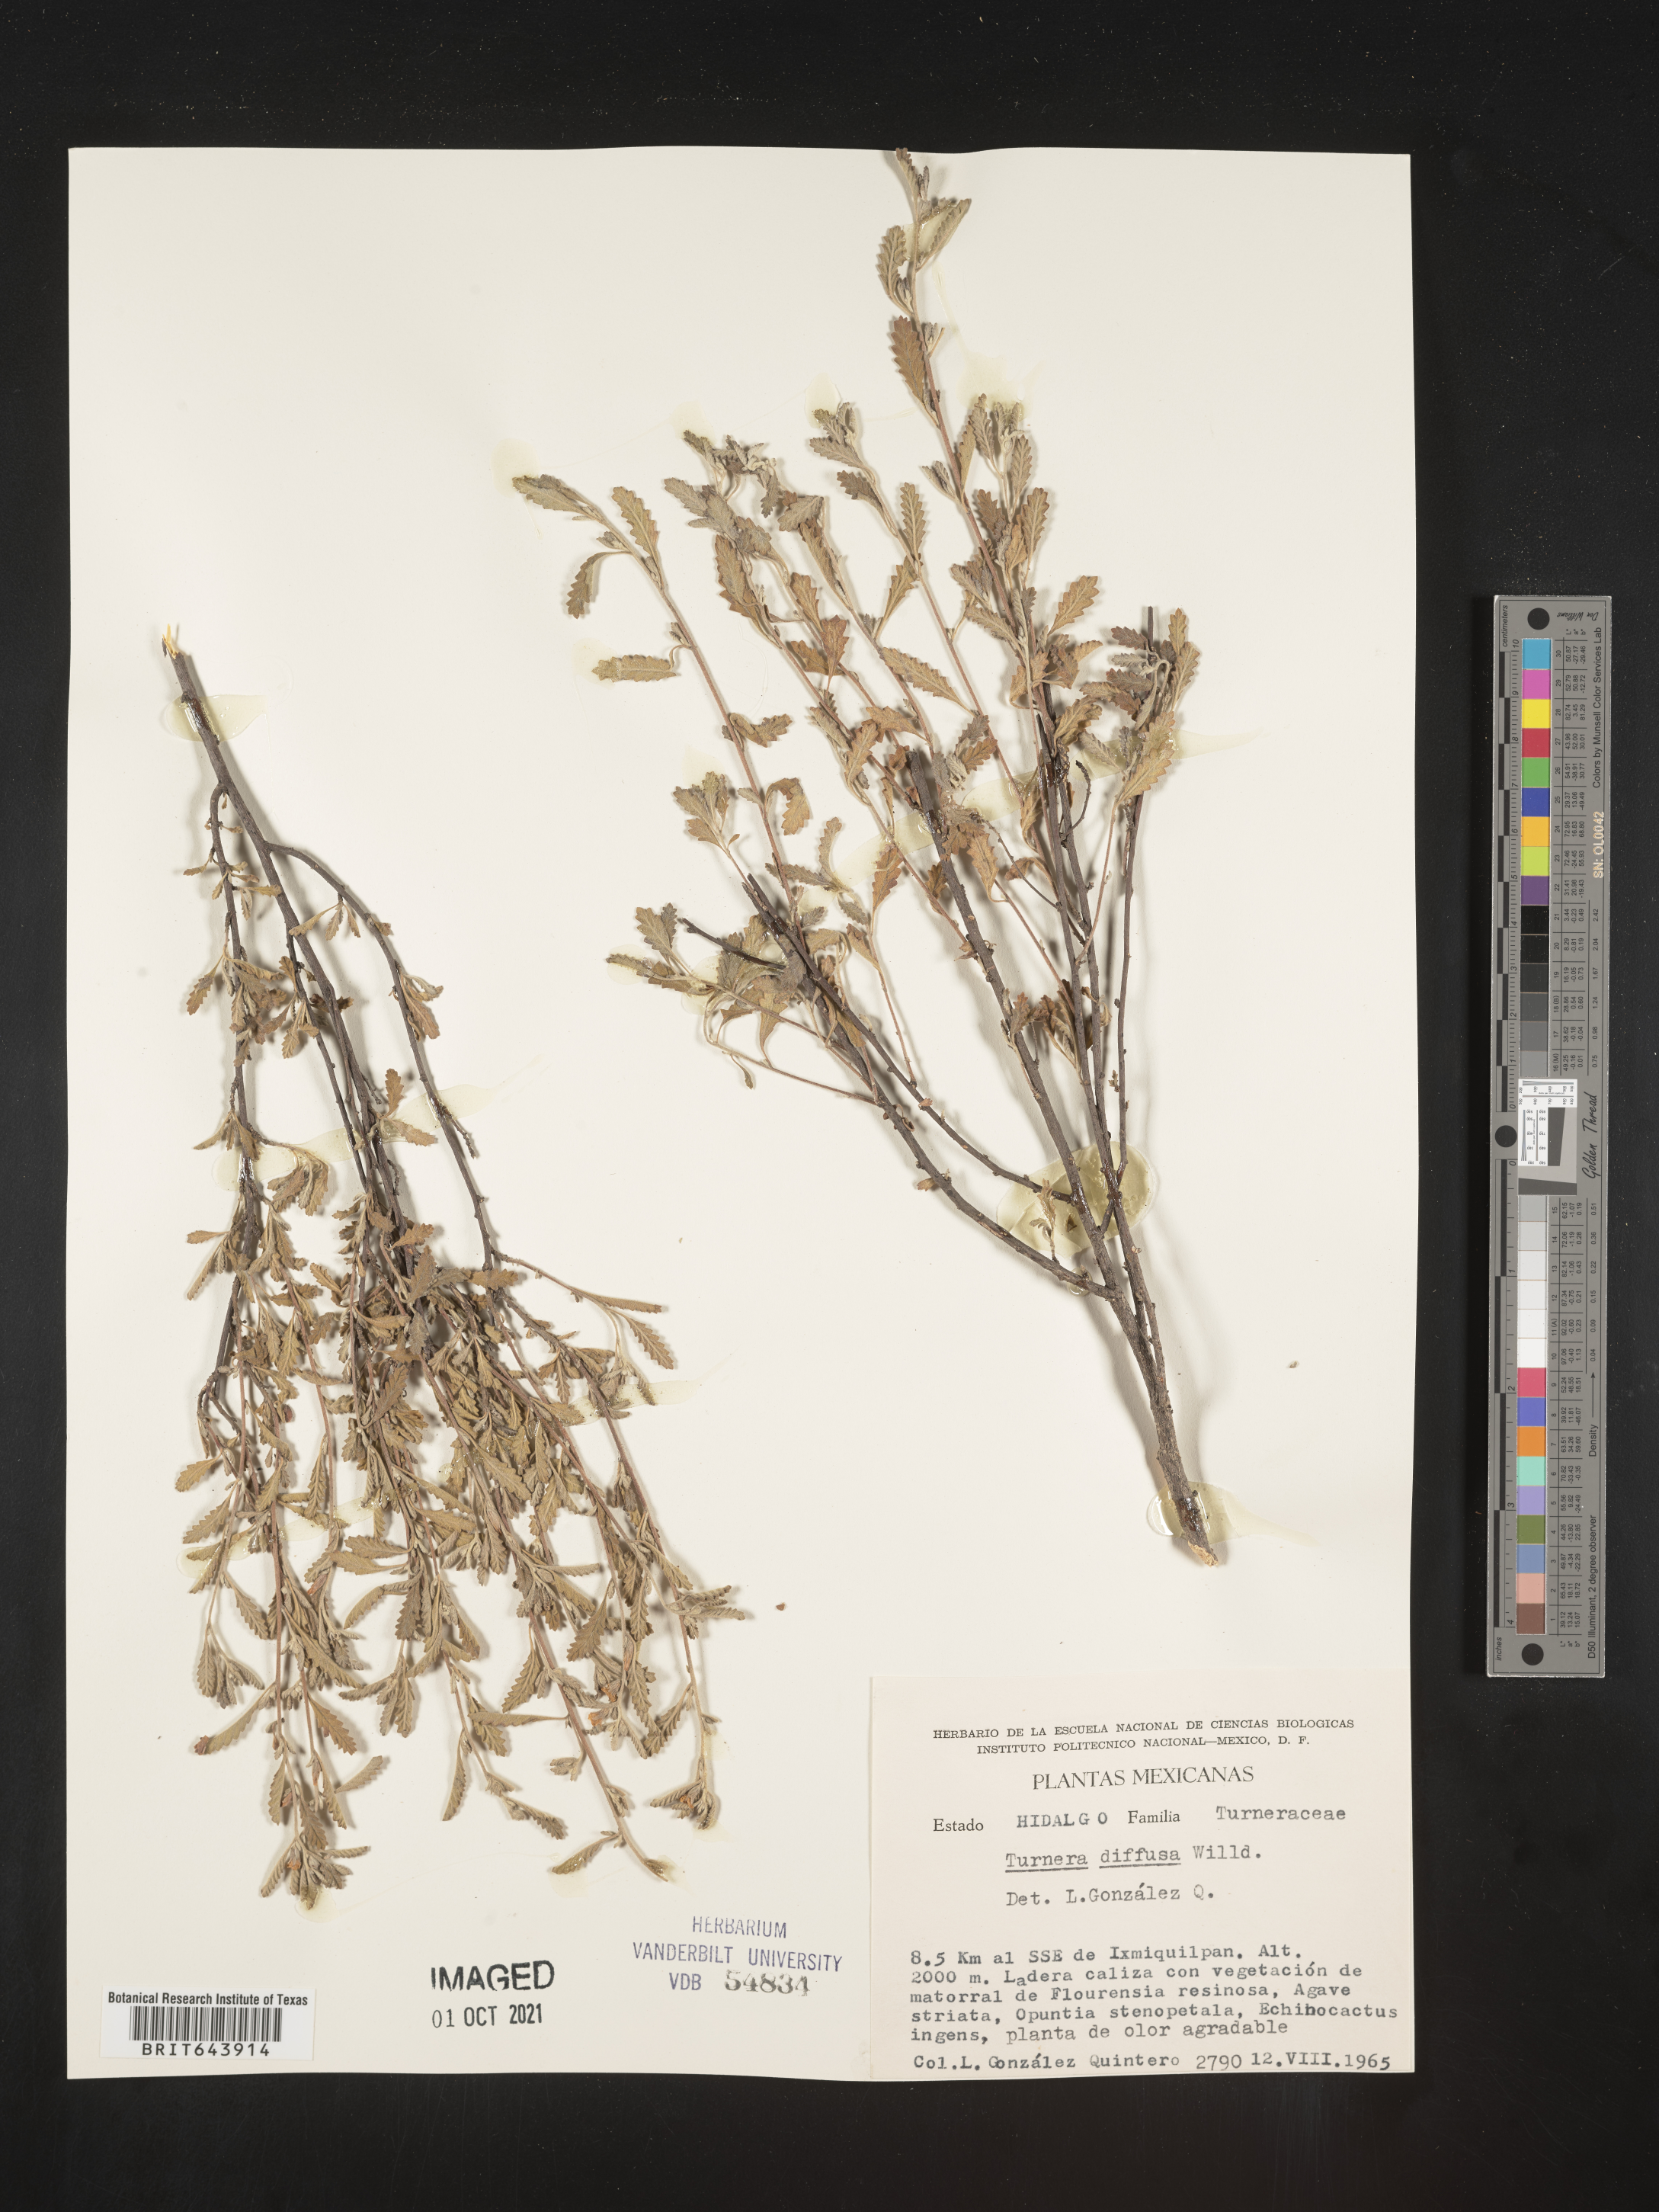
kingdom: Plantae
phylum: Tracheophyta
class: Magnoliopsida
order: Malpighiales
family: Turneraceae
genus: Turnera
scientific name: Turnera
